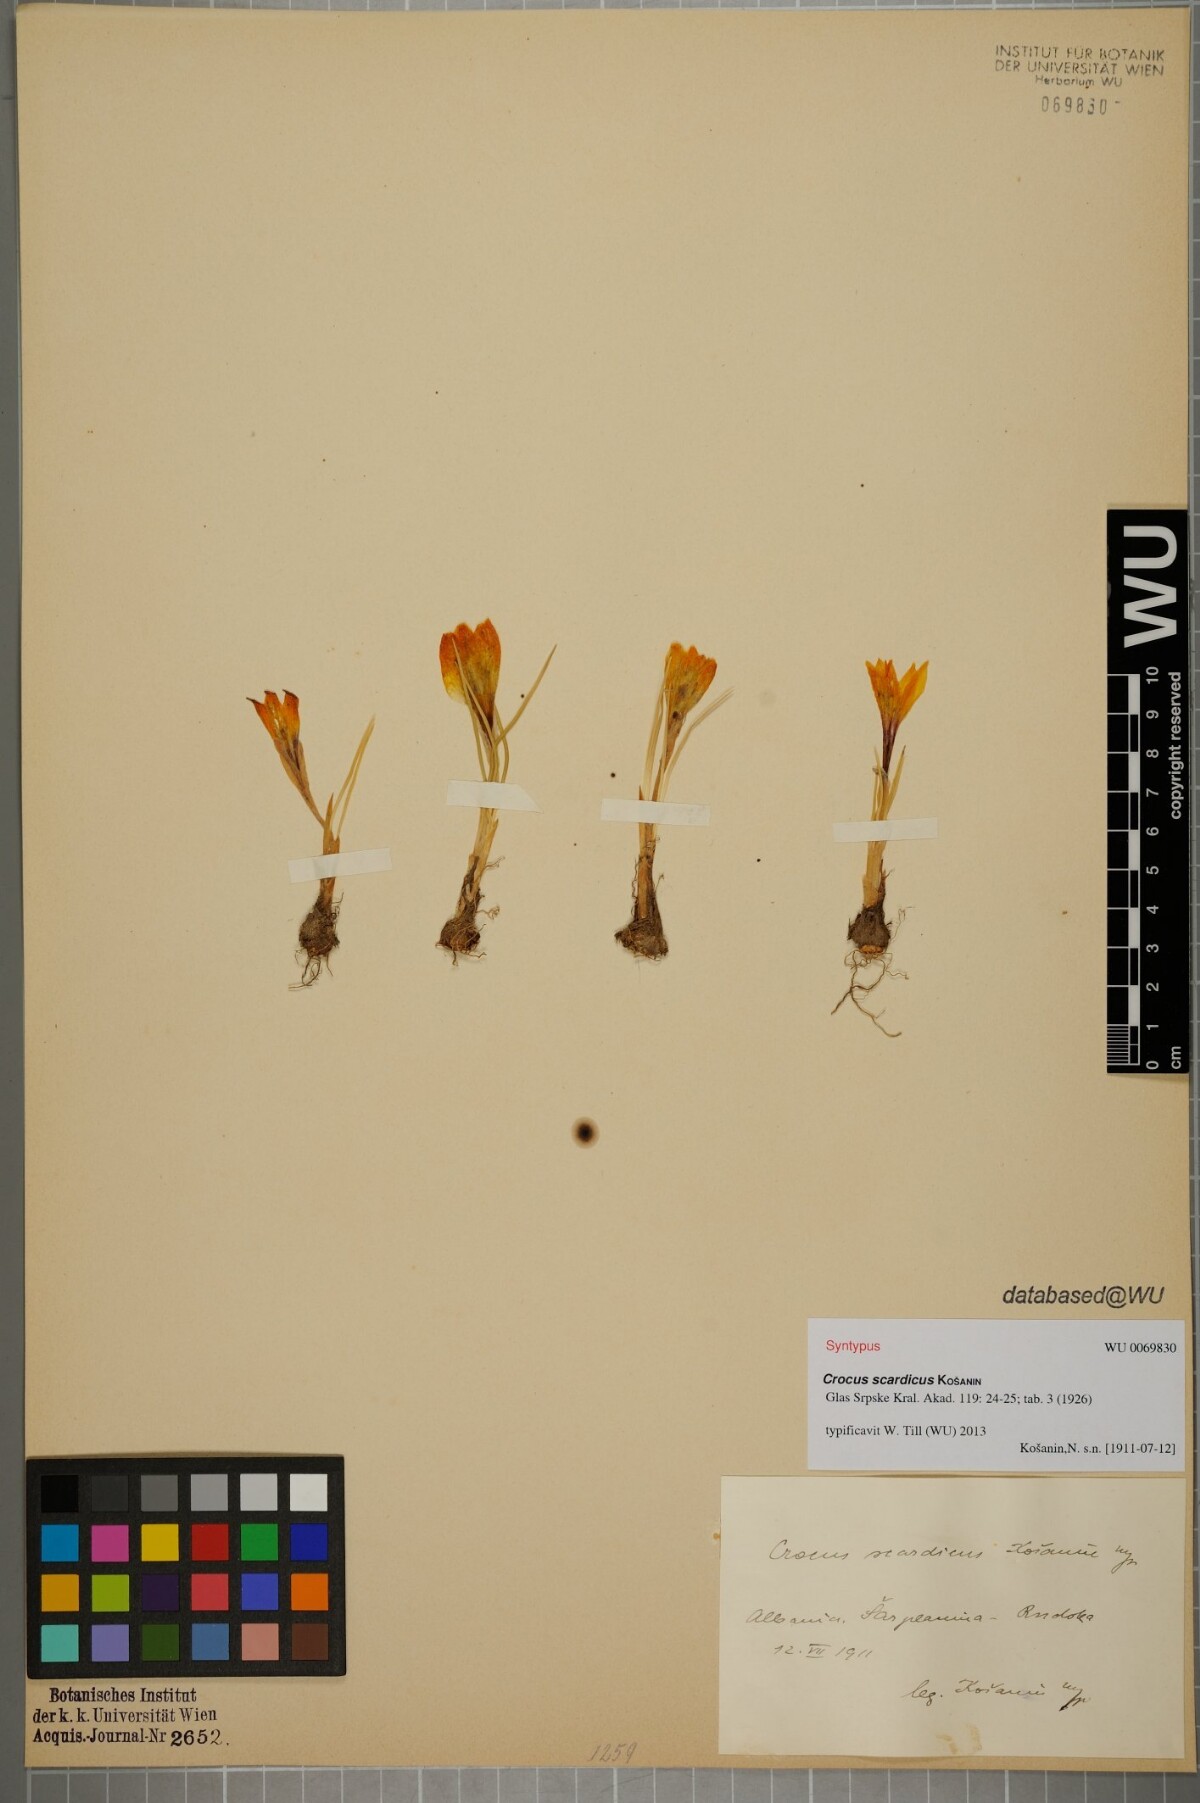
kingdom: Plantae
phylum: Tracheophyta
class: Liliopsida
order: Asparagales
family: Iridaceae
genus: Crocus
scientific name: Crocus scardicus
